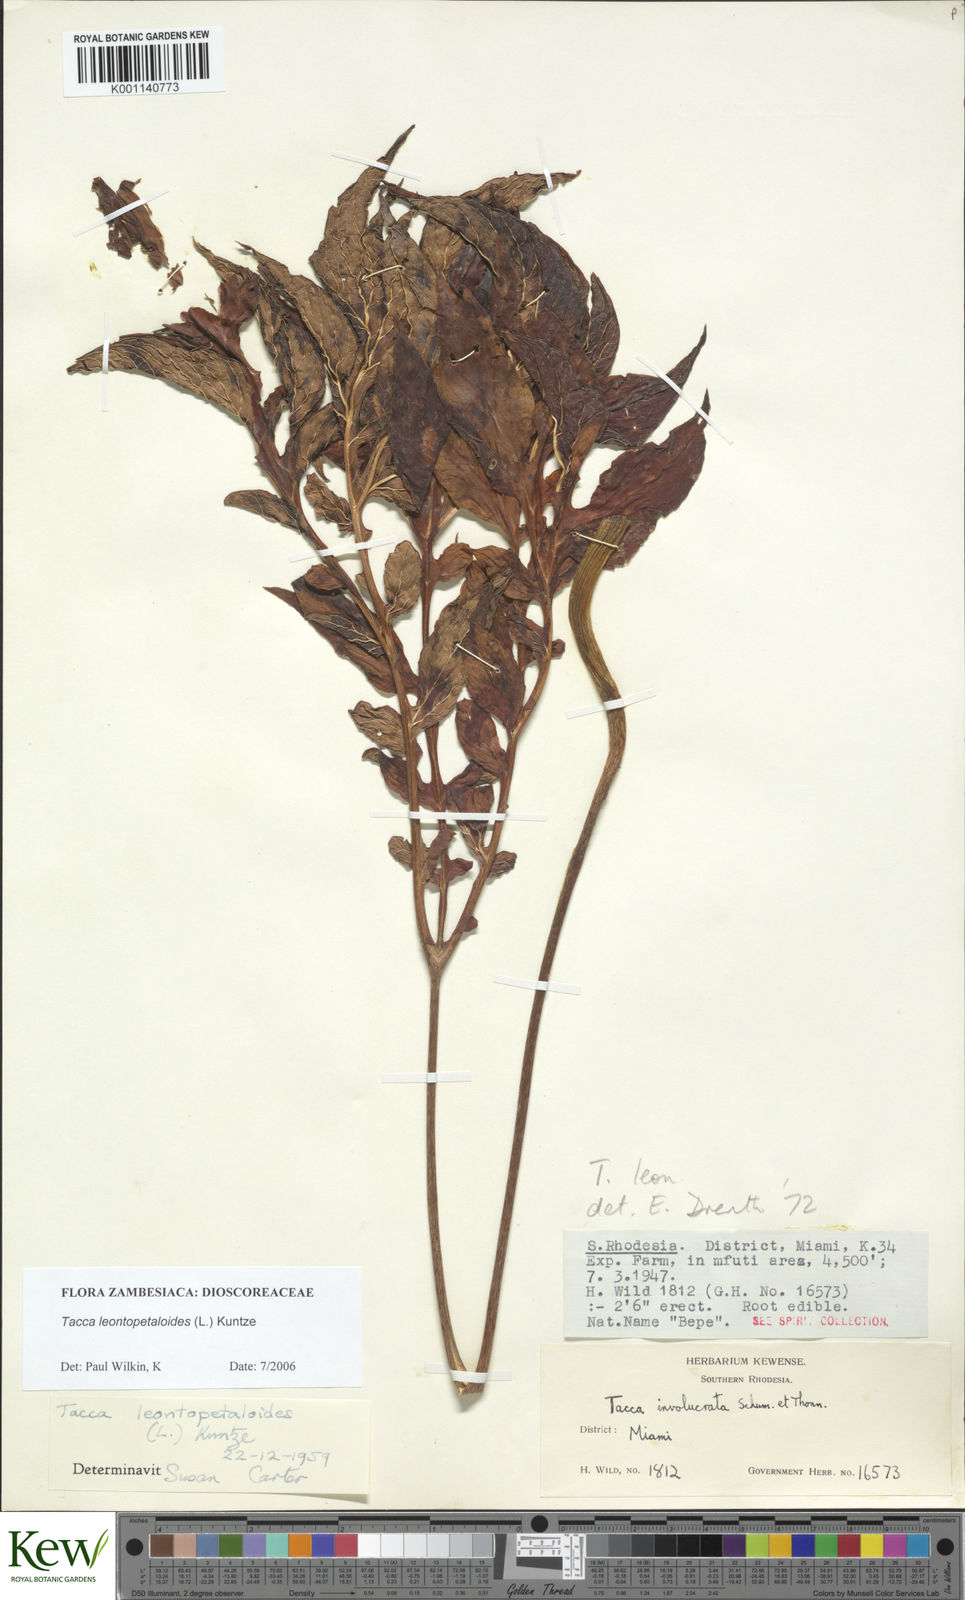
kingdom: Plantae
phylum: Tracheophyta
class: Liliopsida
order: Dioscoreales
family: Dioscoreaceae
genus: Tacca
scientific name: Tacca leontopetaloides
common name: Arrowroot
